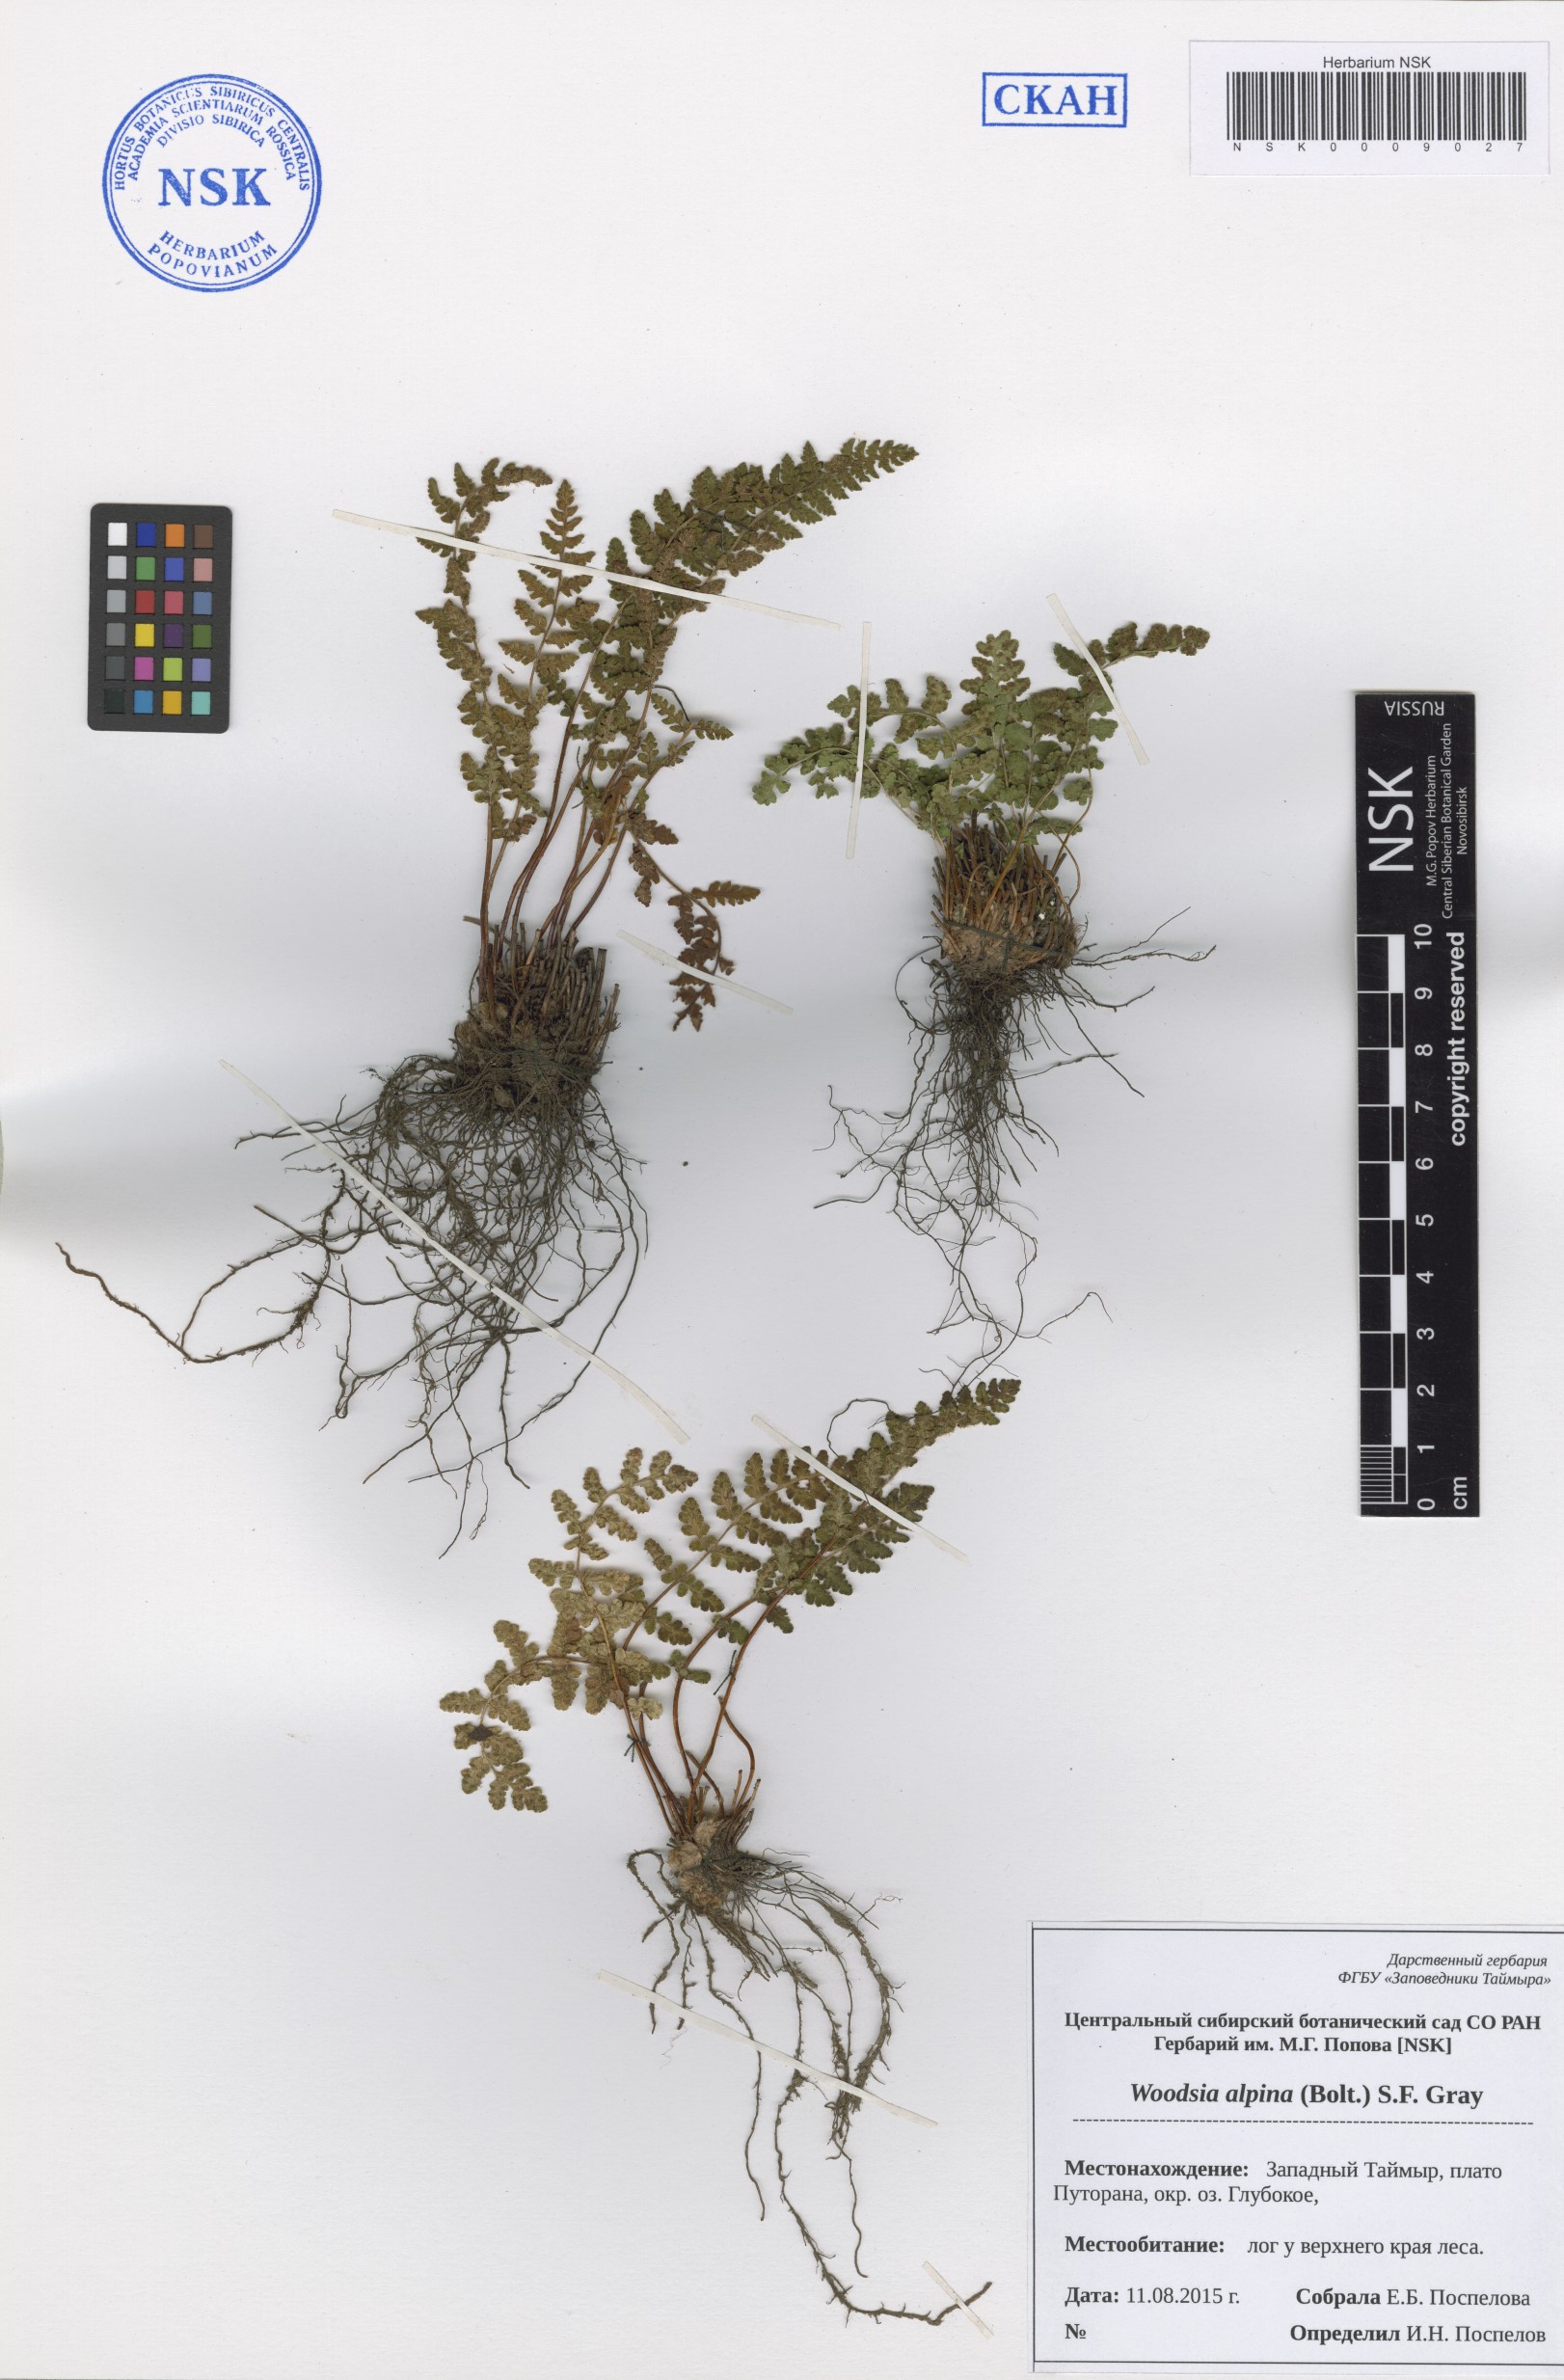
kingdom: Plantae
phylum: Tracheophyta
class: Polypodiopsida
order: Polypodiales
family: Woodsiaceae
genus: Woodsia
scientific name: Woodsia alpina
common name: Alpine woodsia
